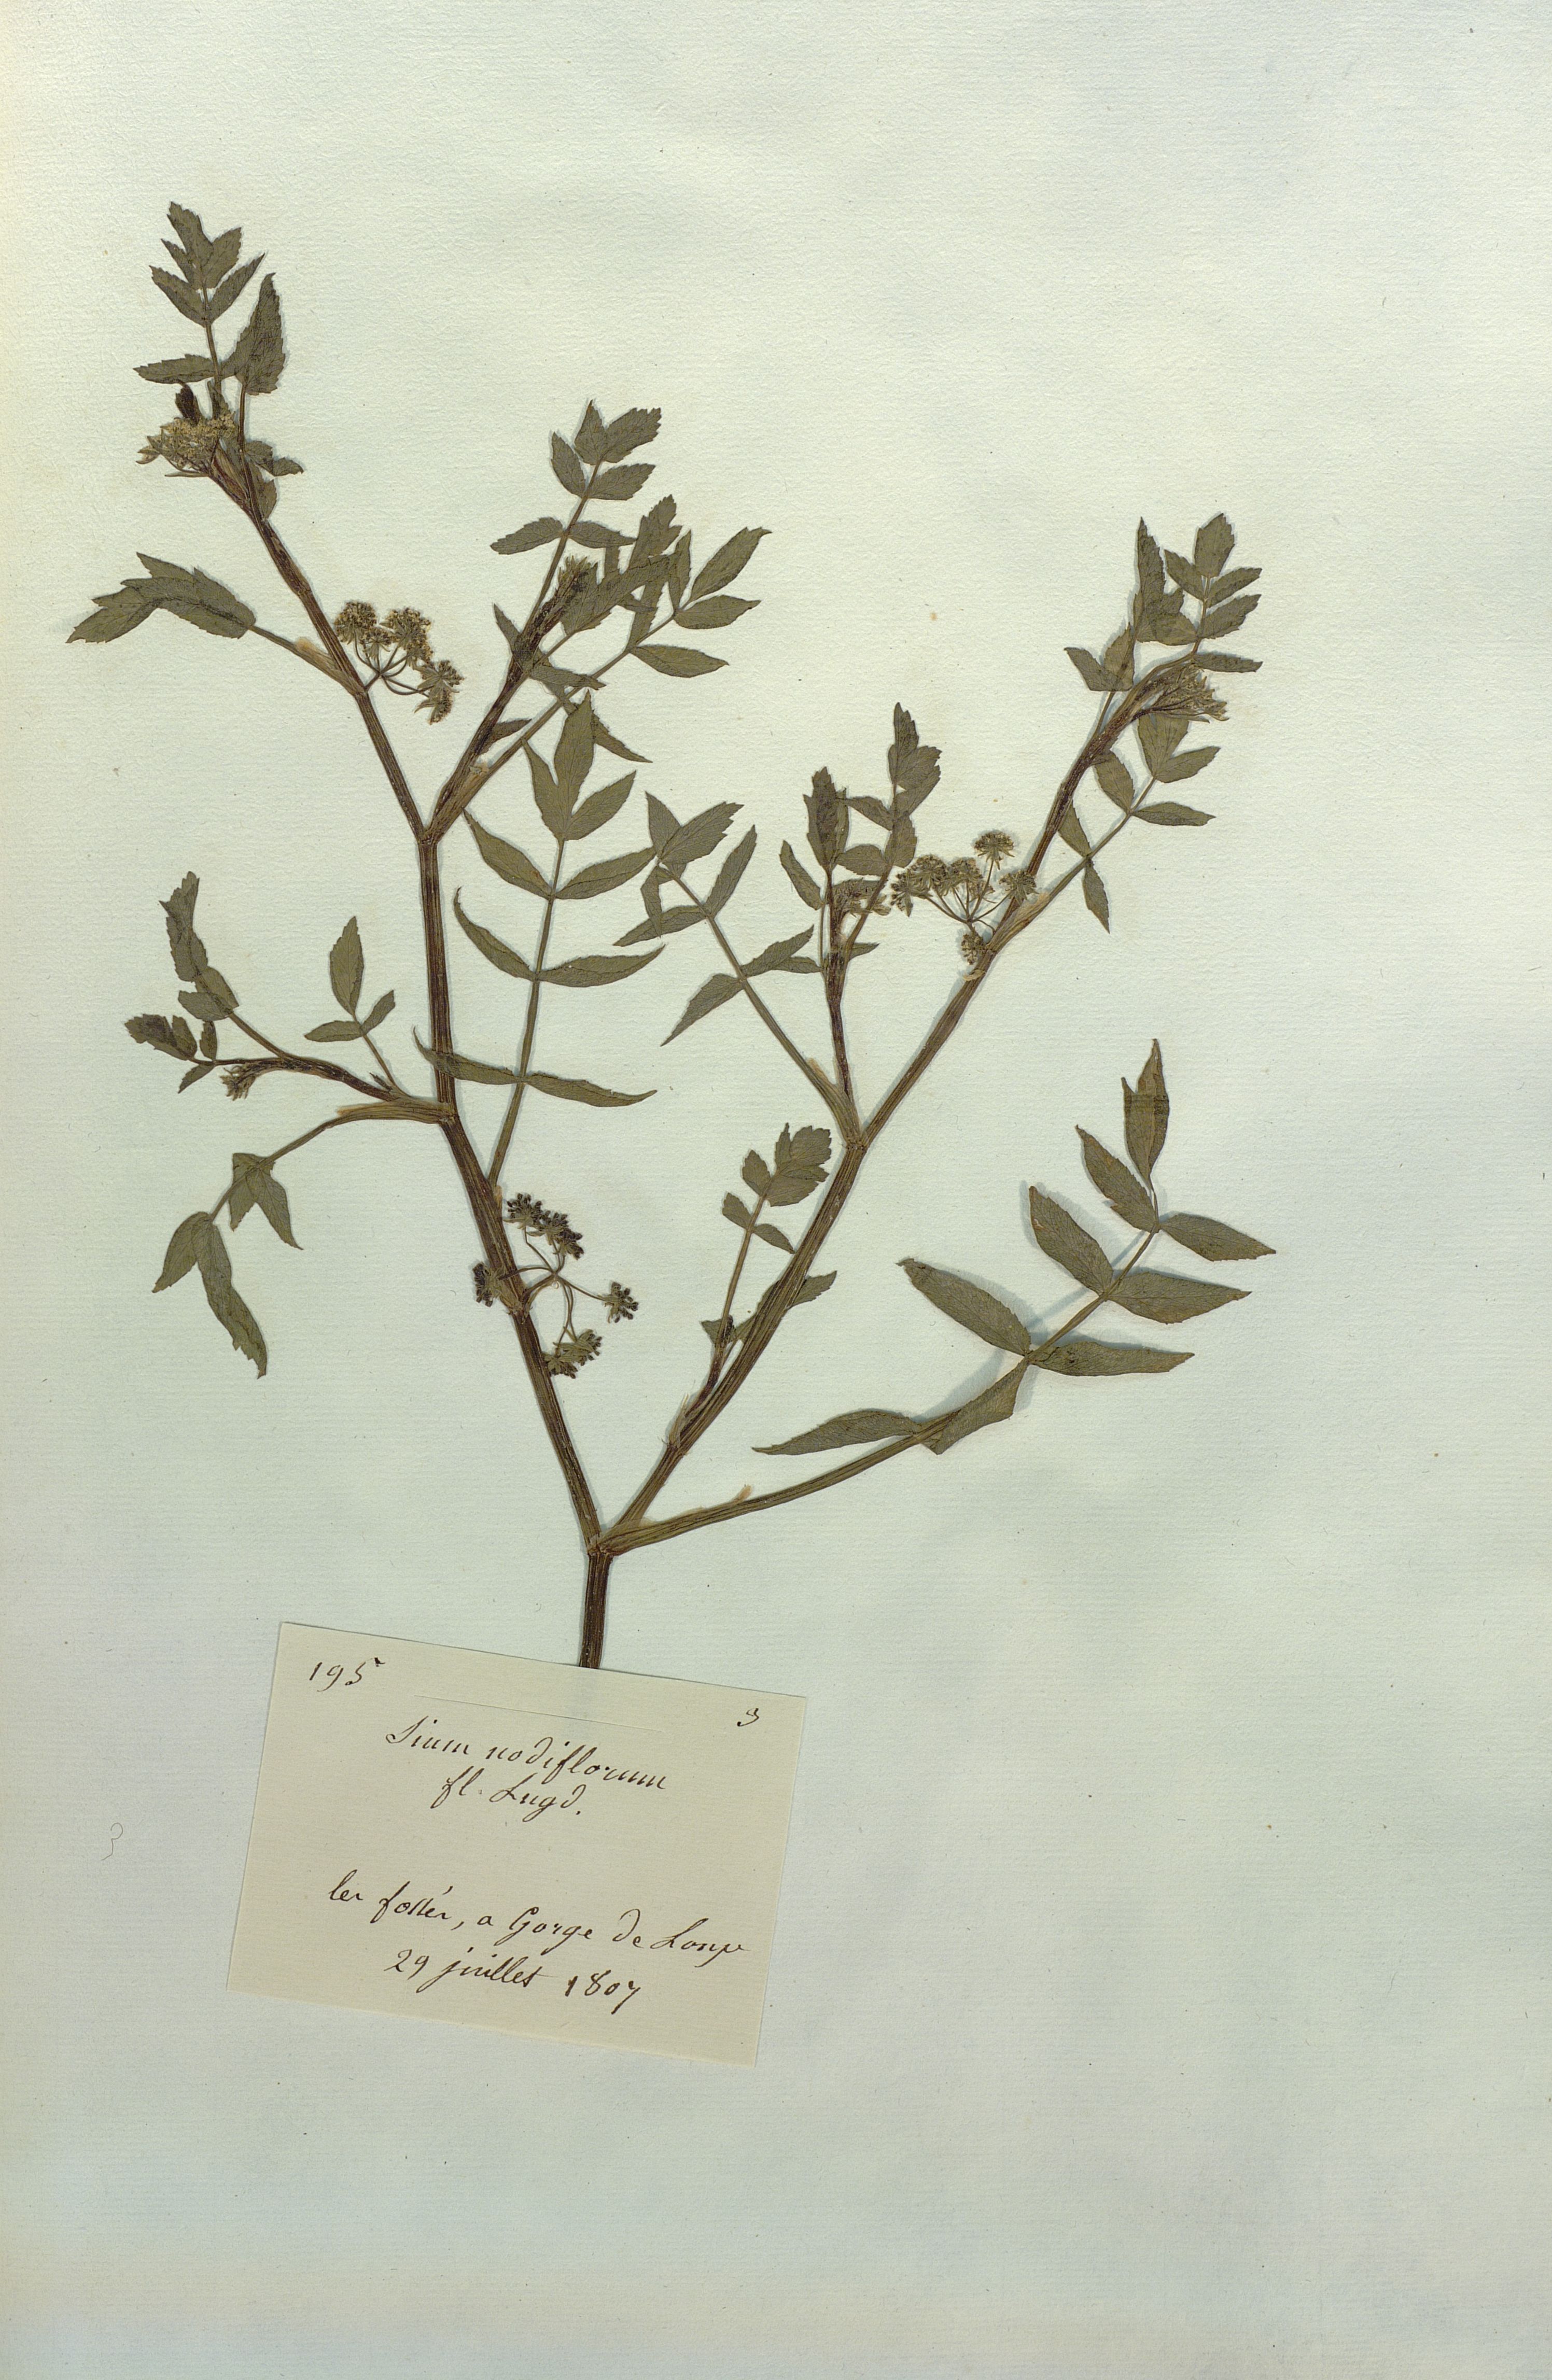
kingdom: Plantae
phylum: Tracheophyta
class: Magnoliopsida
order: Apiales
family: Apiaceae
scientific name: Apiaceae
